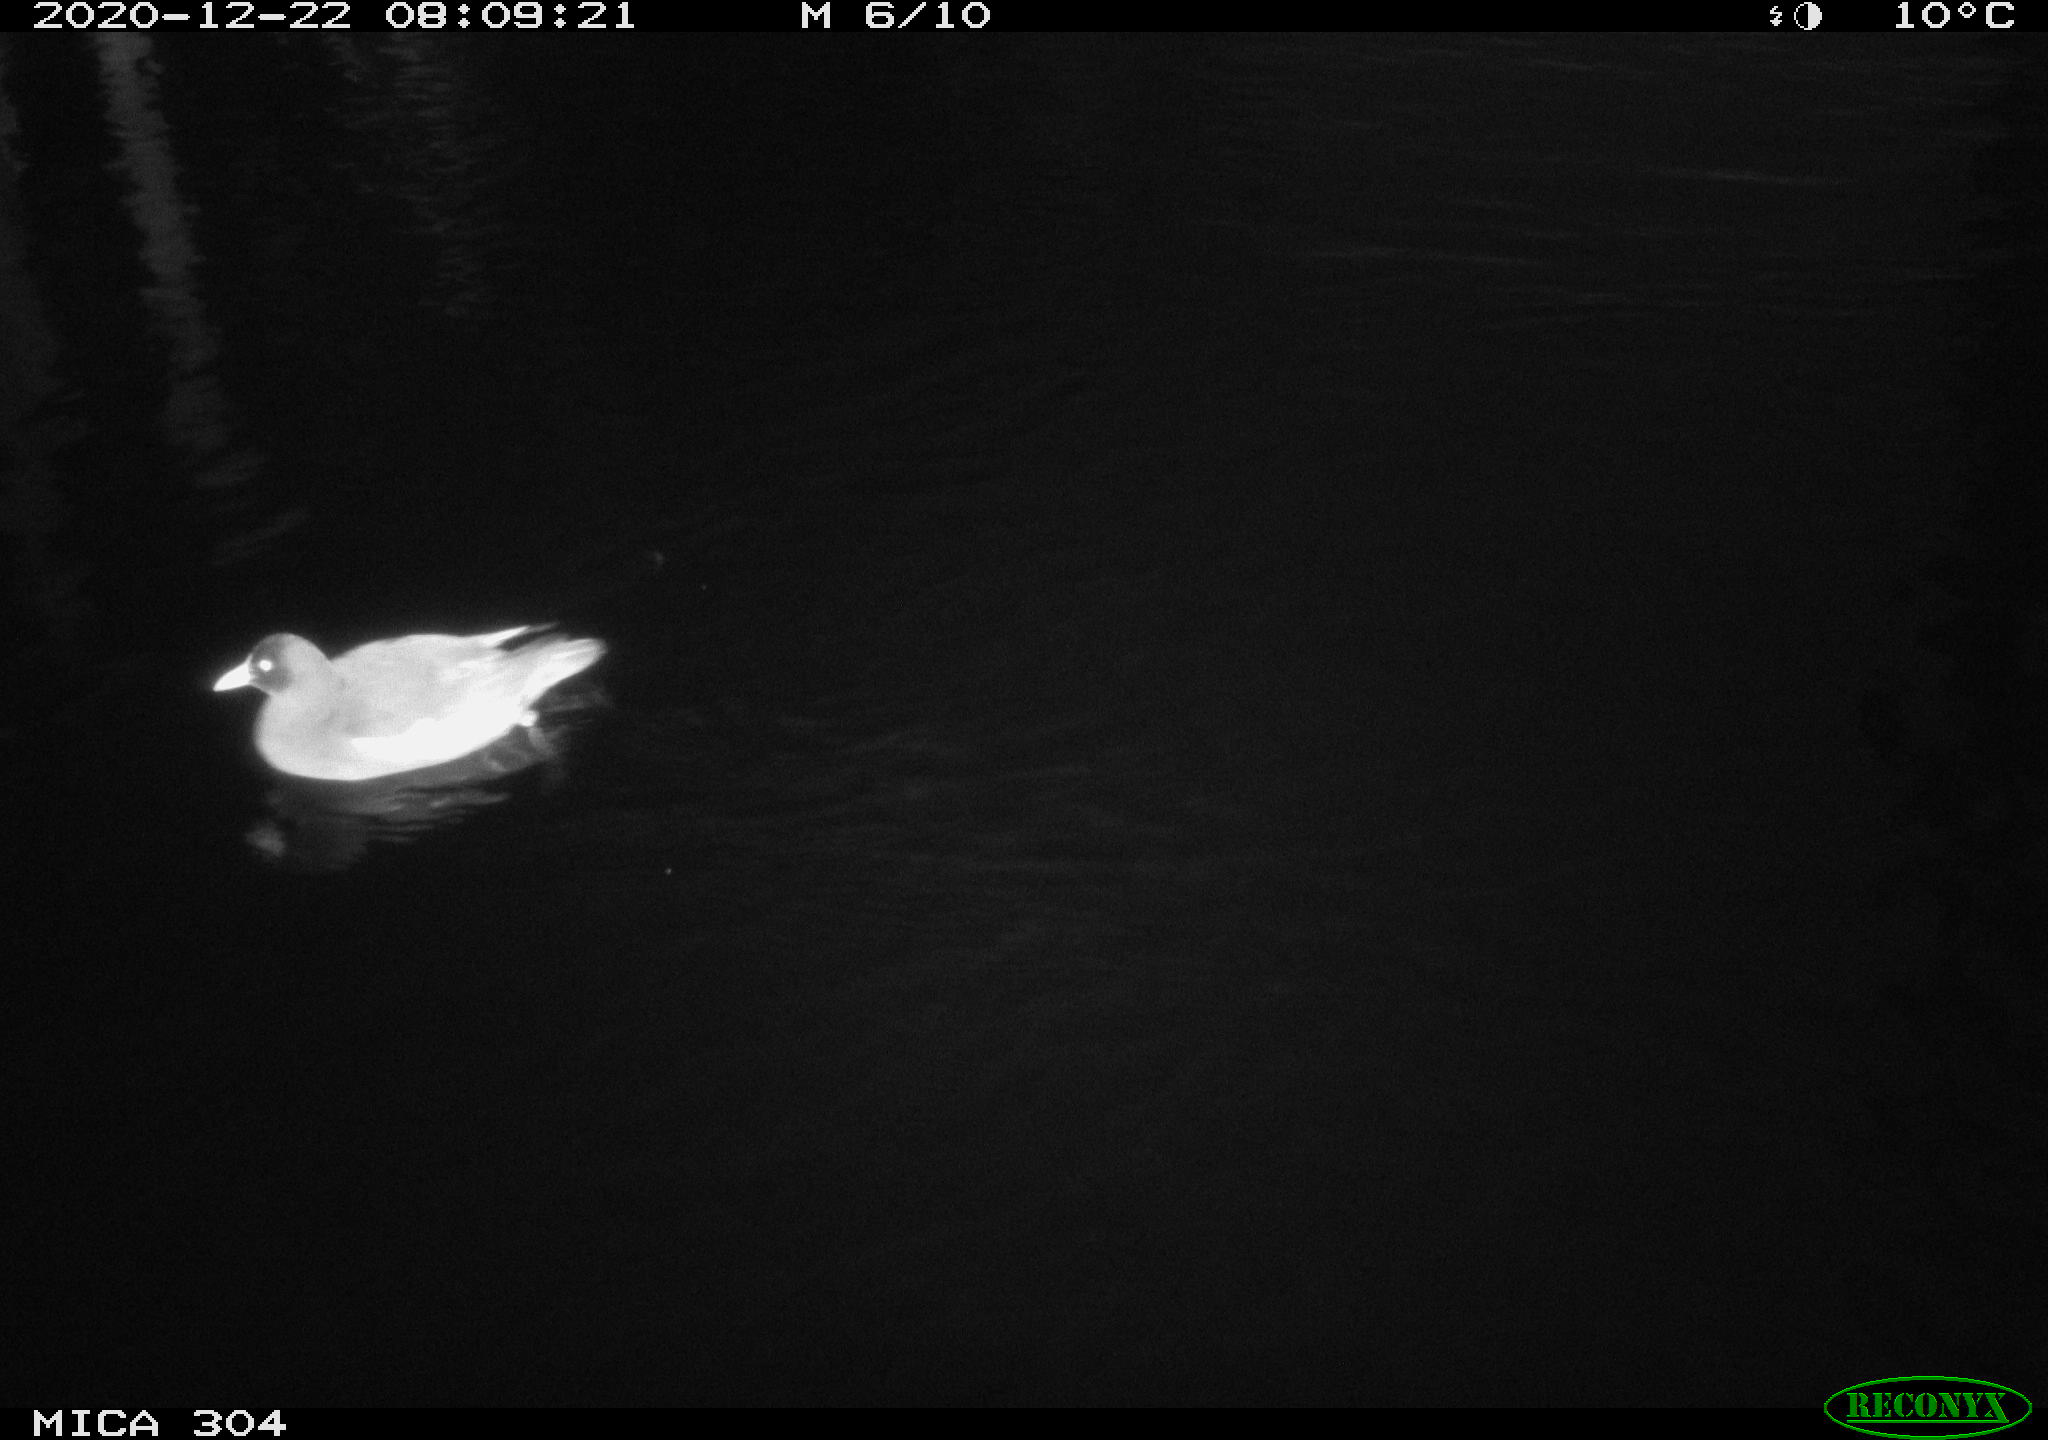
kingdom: Animalia
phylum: Chordata
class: Aves
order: Gruiformes
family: Rallidae
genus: Gallinula
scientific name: Gallinula chloropus
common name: Common moorhen
